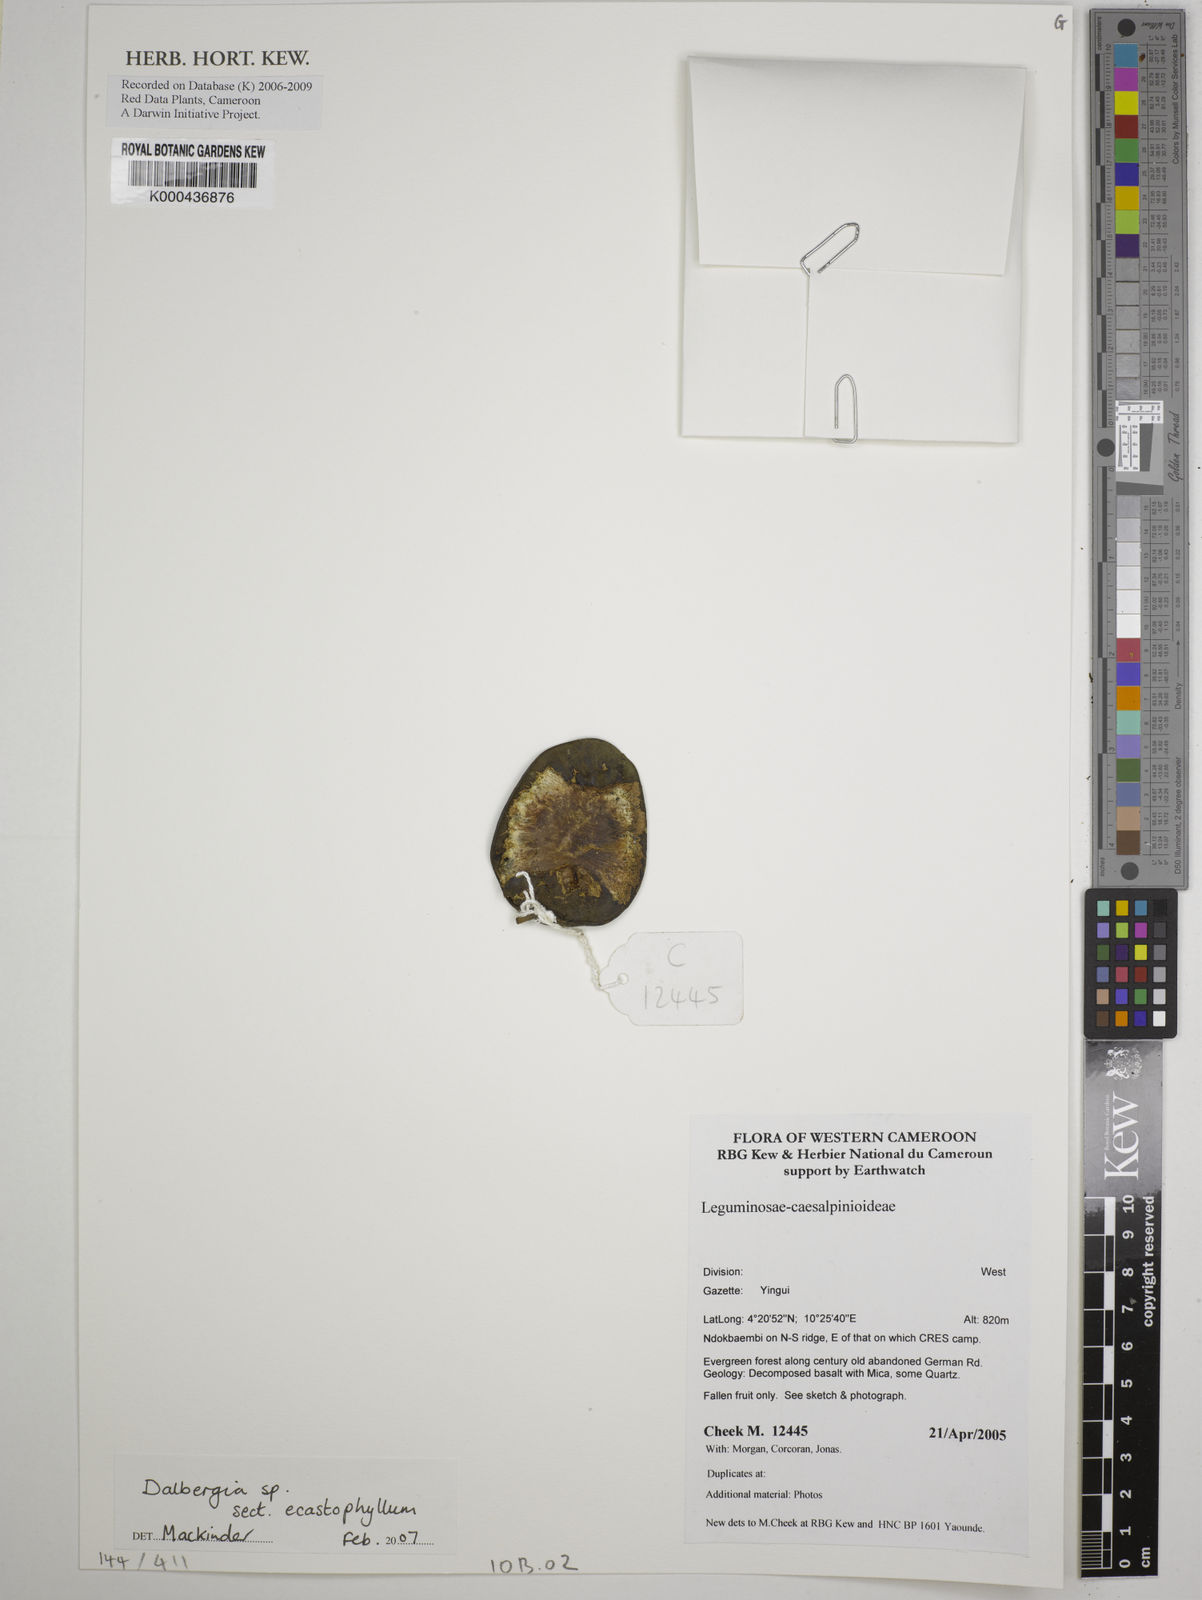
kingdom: Plantae
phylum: Tracheophyta
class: Magnoliopsida
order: Fabales
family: Fabaceae
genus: Dalbergia
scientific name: Dalbergia
